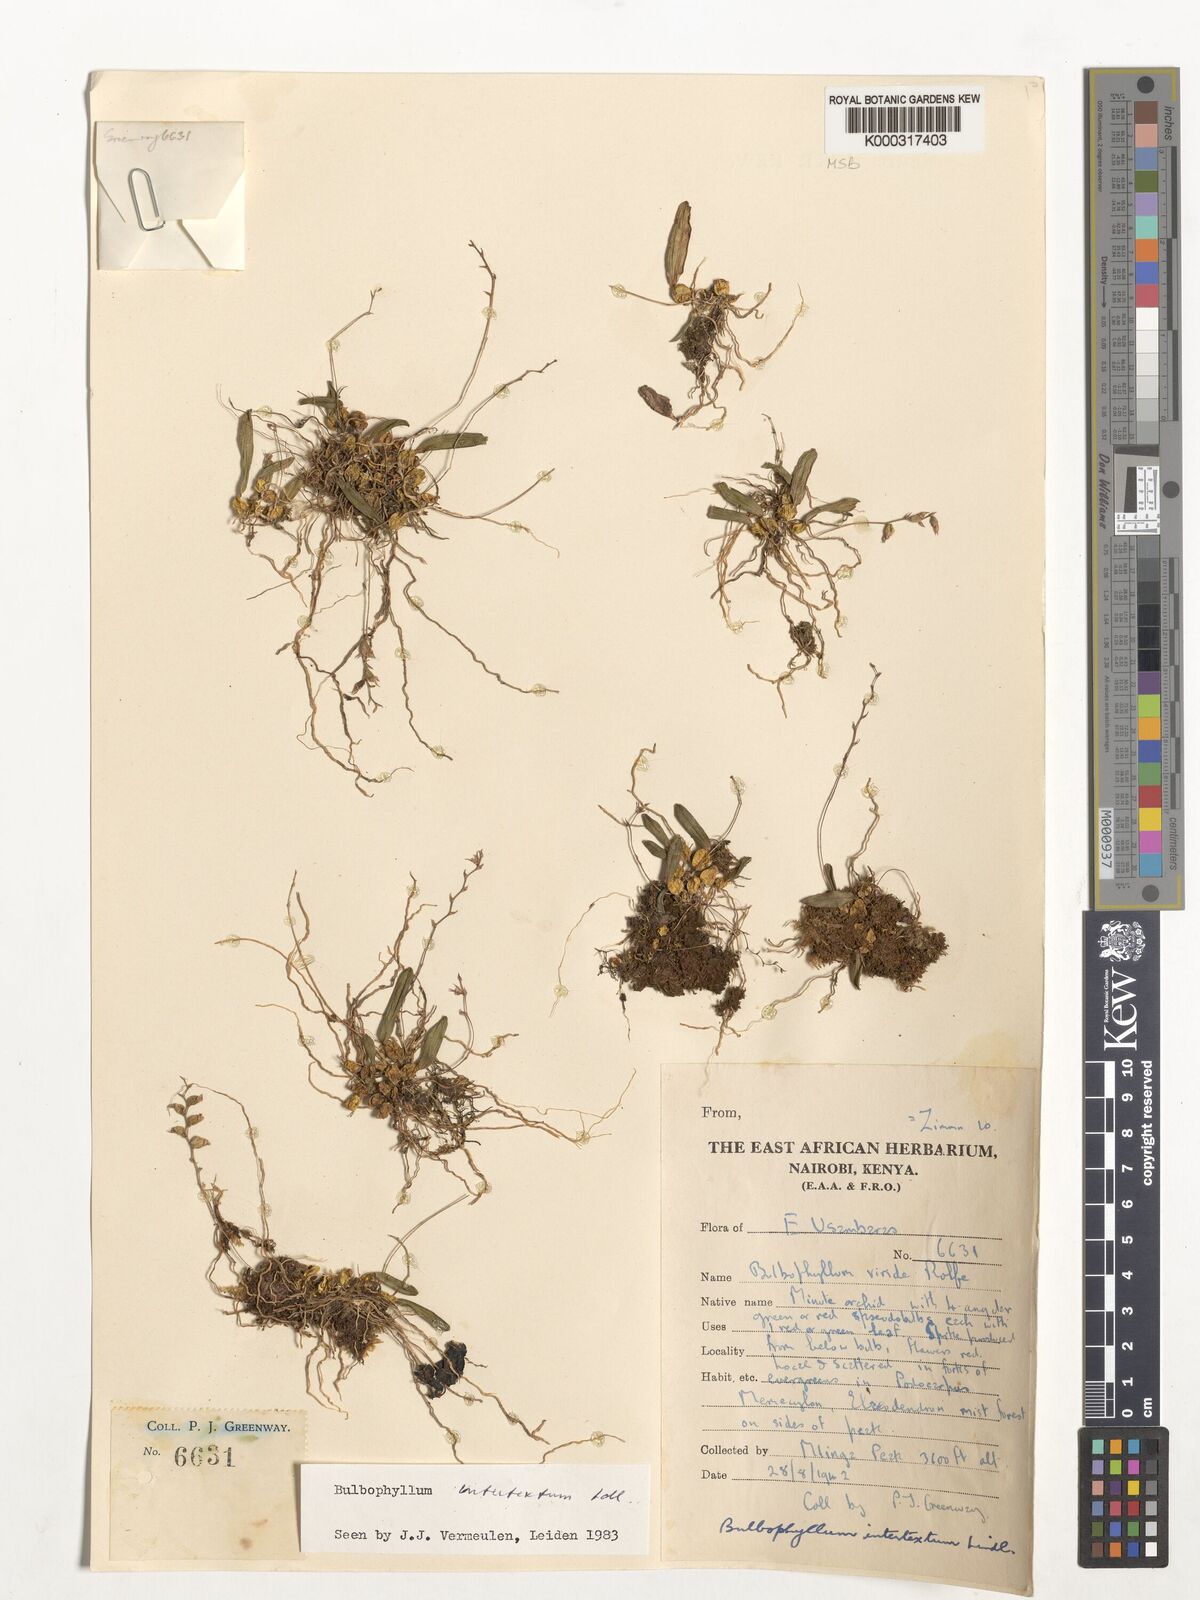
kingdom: Plantae
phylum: Tracheophyta
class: Liliopsida
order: Asparagales
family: Orchidaceae
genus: Bulbophyllum
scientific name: Bulbophyllum intertextum
